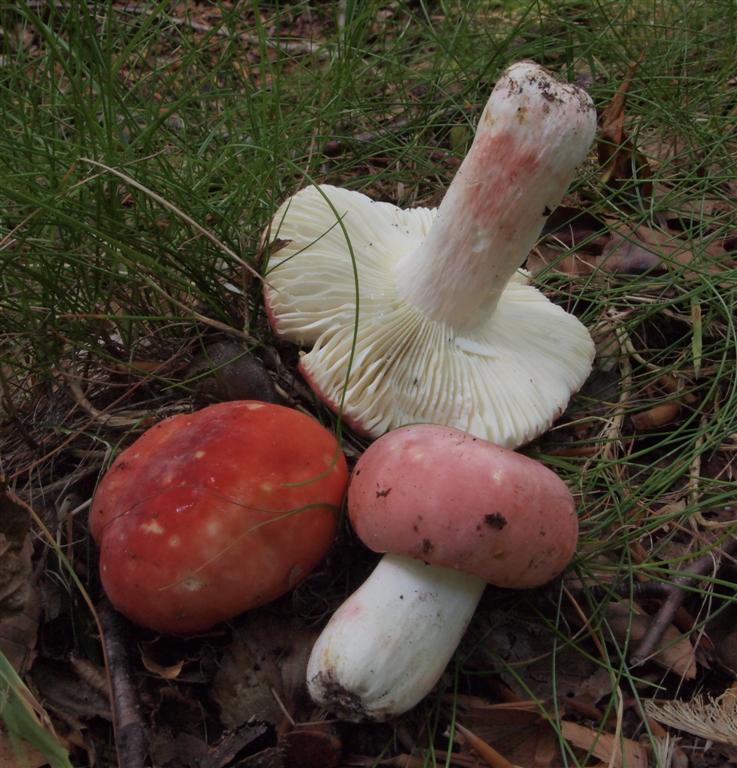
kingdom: Fungi
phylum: Basidiomycota
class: Agaricomycetes
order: Russulales
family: Russulaceae
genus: Russula
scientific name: Russula rosea
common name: fastkødet skørhat
